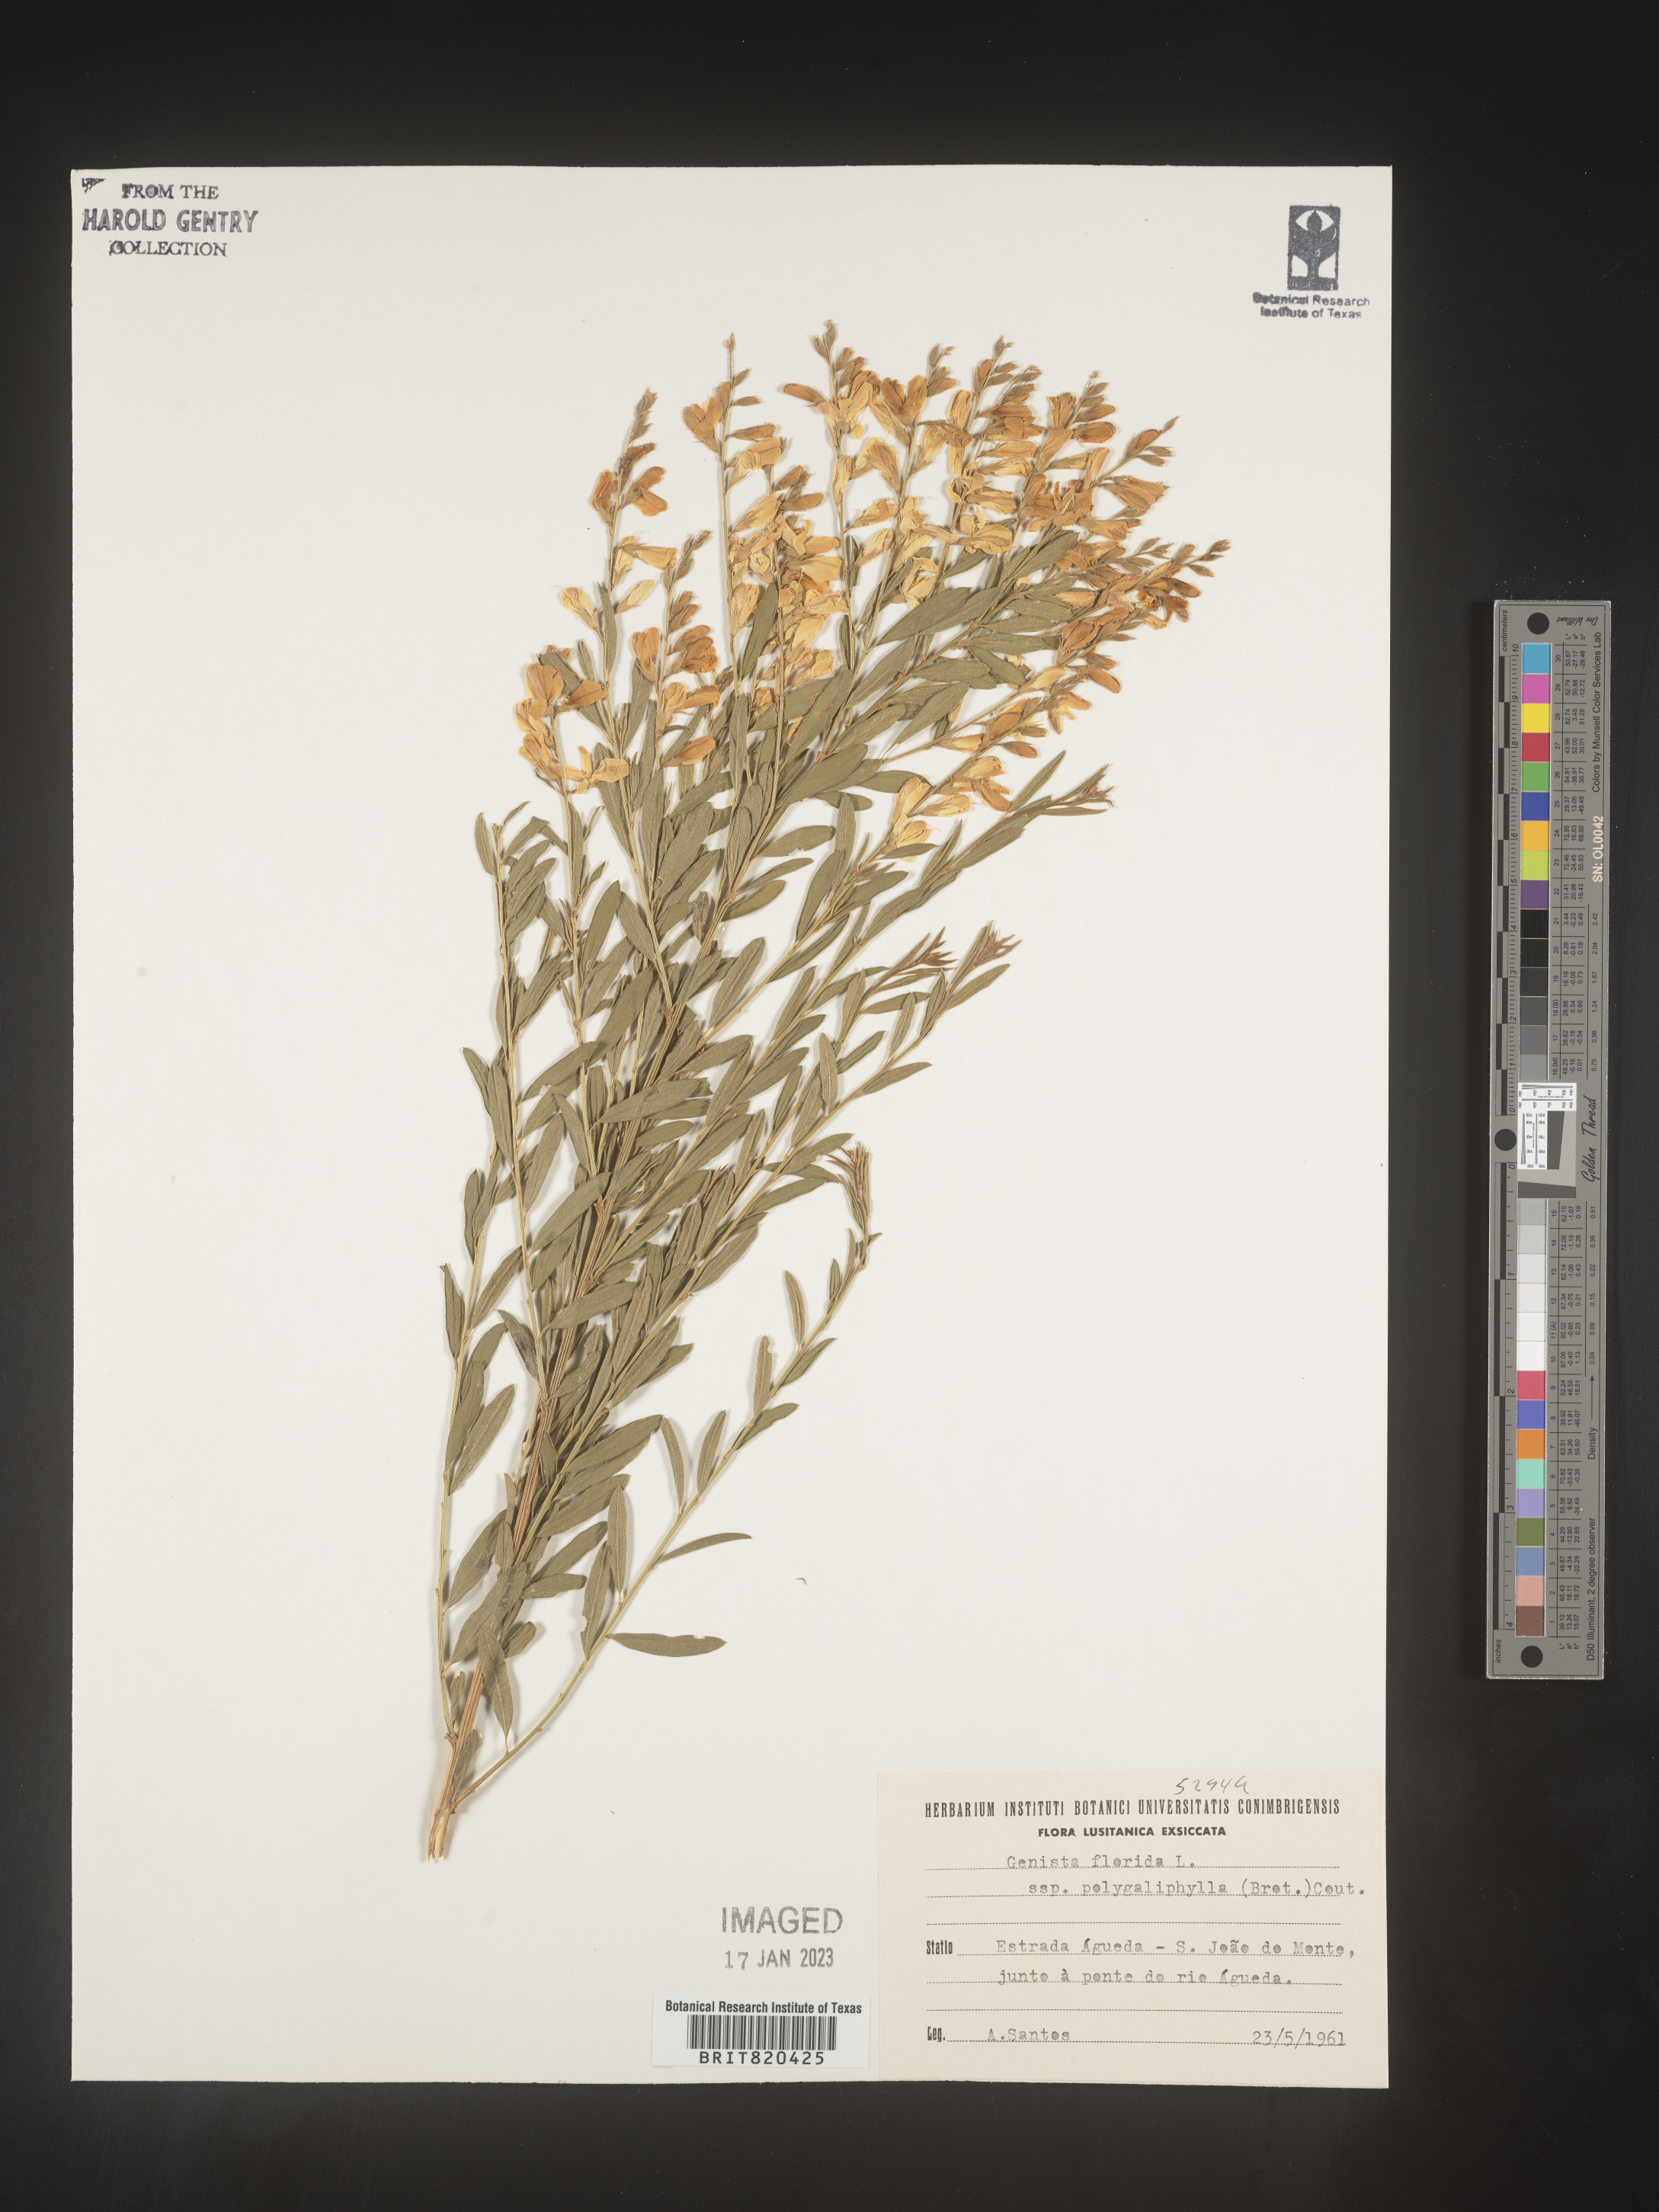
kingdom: Plantae
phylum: Tracheophyta
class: Magnoliopsida
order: Fabales
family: Fabaceae
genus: Genista
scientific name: Genista
